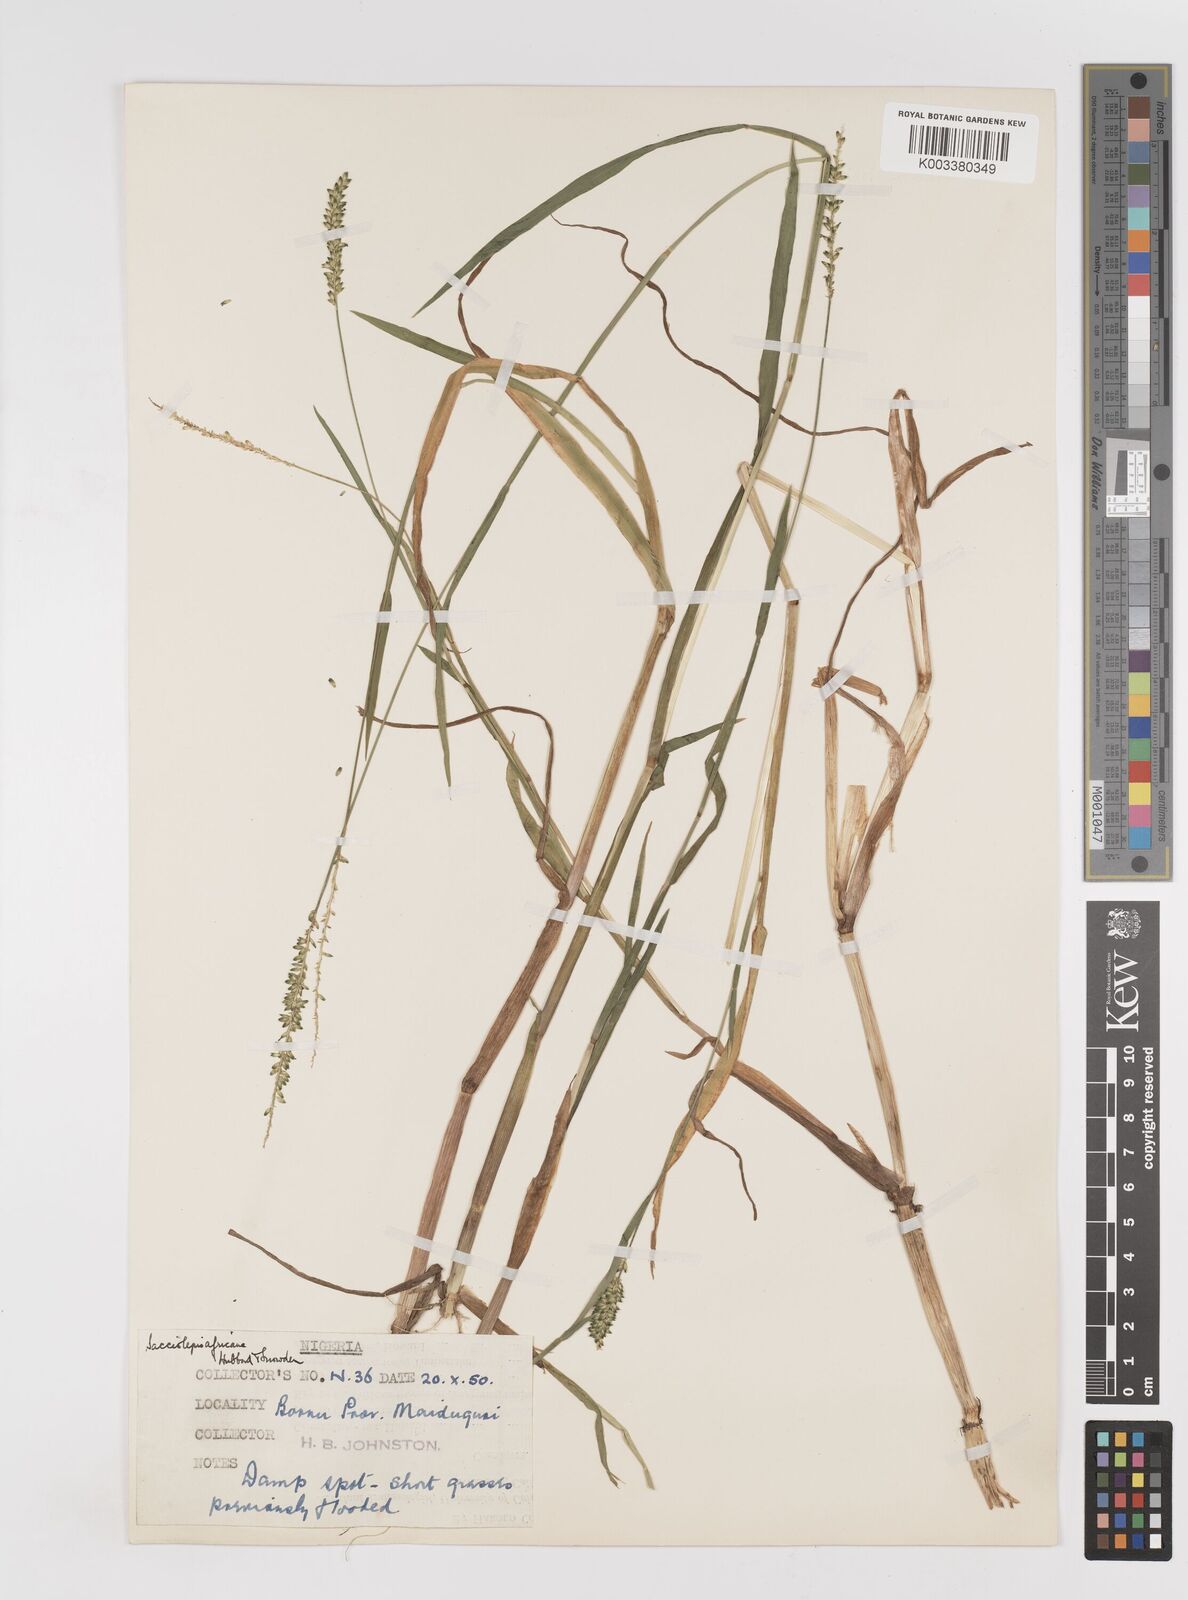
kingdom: Plantae
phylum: Tracheophyta
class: Liliopsida
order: Poales
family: Poaceae
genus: Sacciolepis
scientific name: Sacciolepis africana
